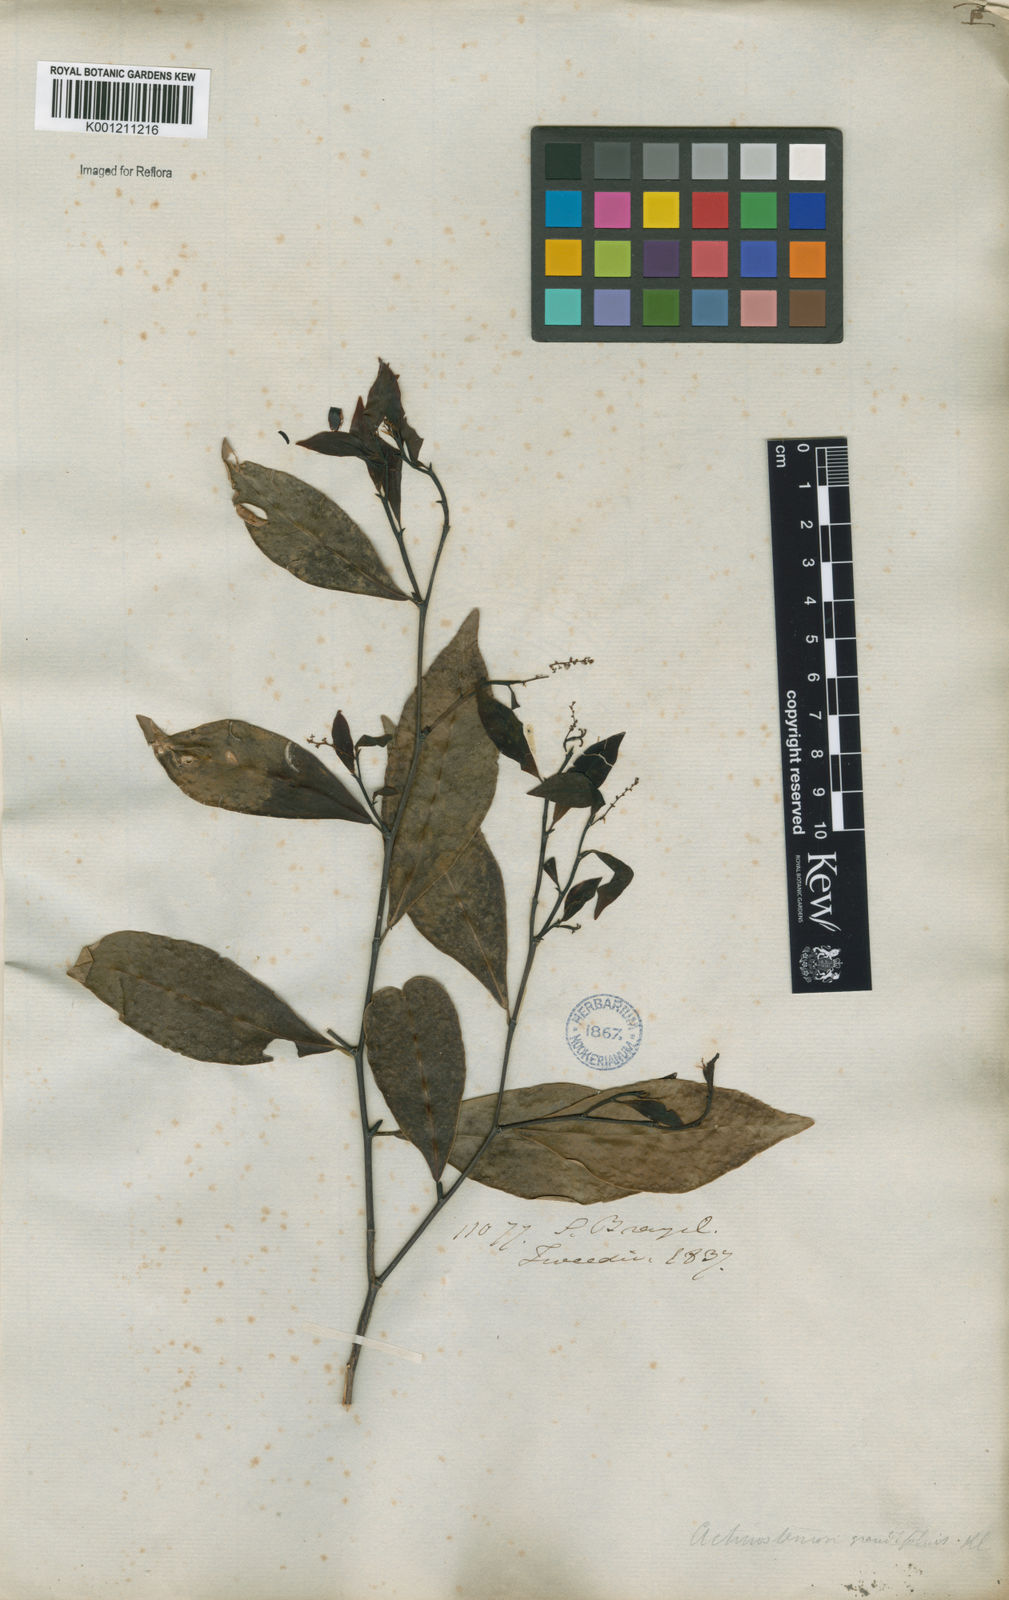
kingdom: Plantae
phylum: Tracheophyta
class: Magnoliopsida
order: Malpighiales
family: Euphorbiaceae
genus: Actinostemon
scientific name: Actinostemon
